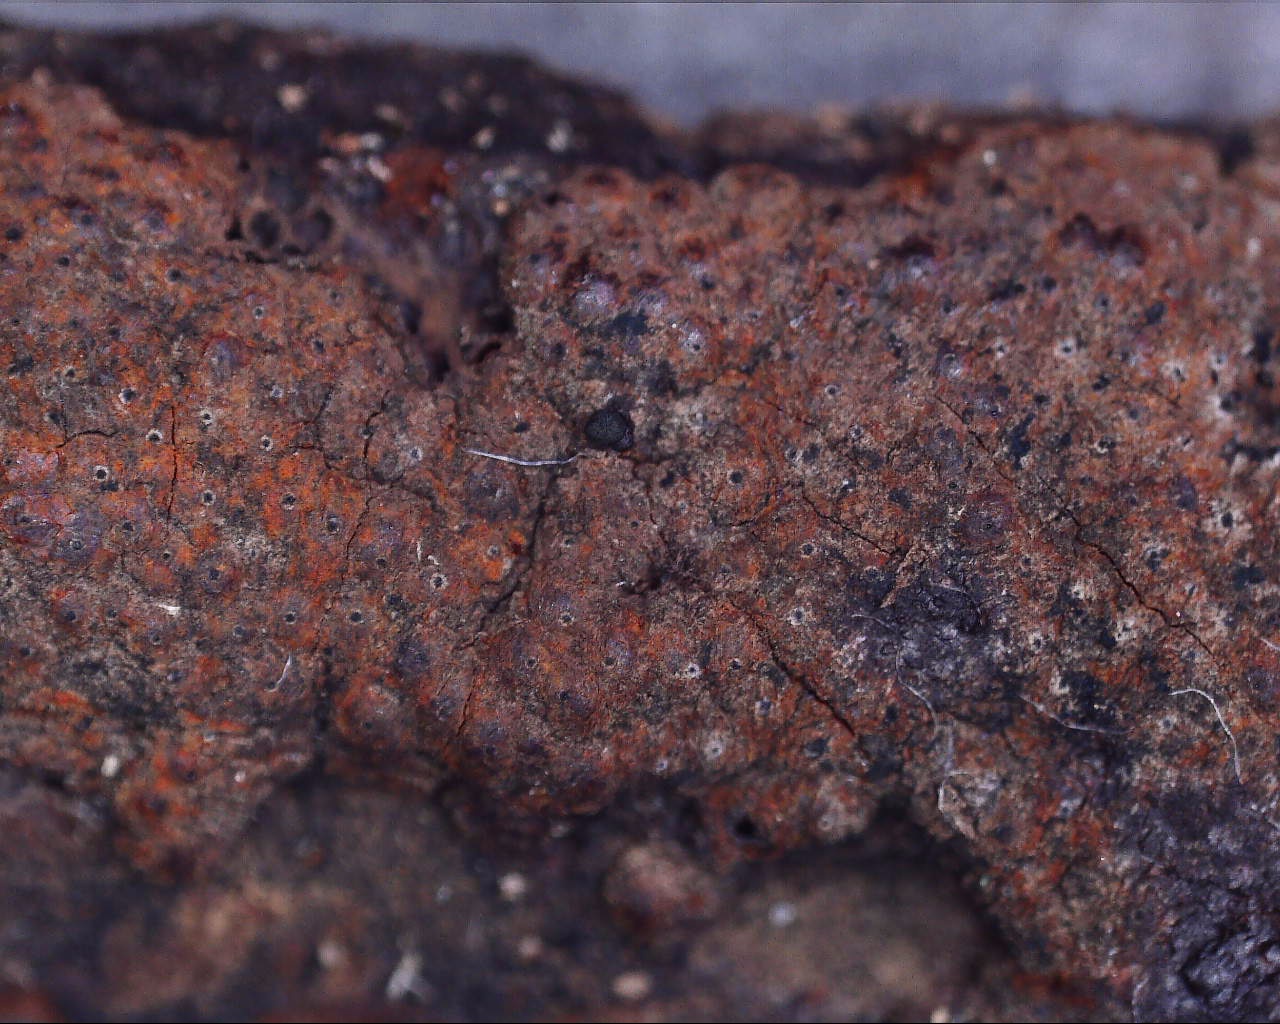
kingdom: Fungi
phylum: Ascomycota
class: Sordariomycetes
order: Xylariales
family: Hypoxylaceae
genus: Hypoxylon
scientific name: Hypoxylon rubiginosum
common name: rustfarvet kulbær
